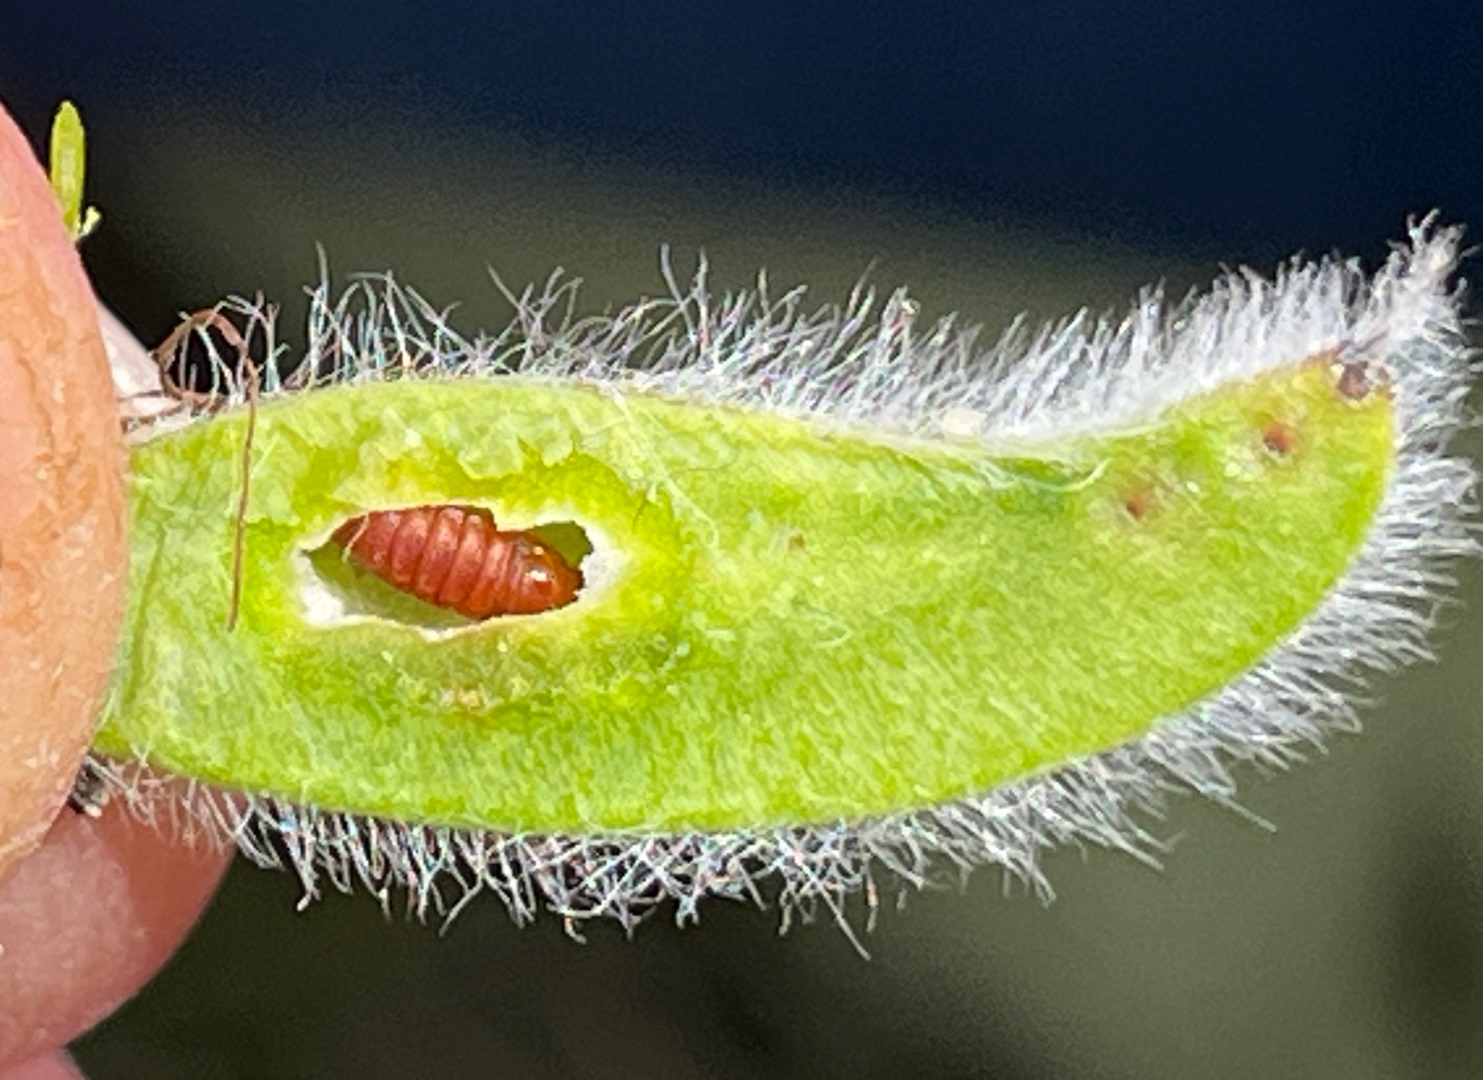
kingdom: Animalia
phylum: Arthropoda
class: Insecta
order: Diptera
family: Cecidomyiidae
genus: Asphondylia
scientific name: Asphondylia sarothamni
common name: Gyvelmycelgalmyg
